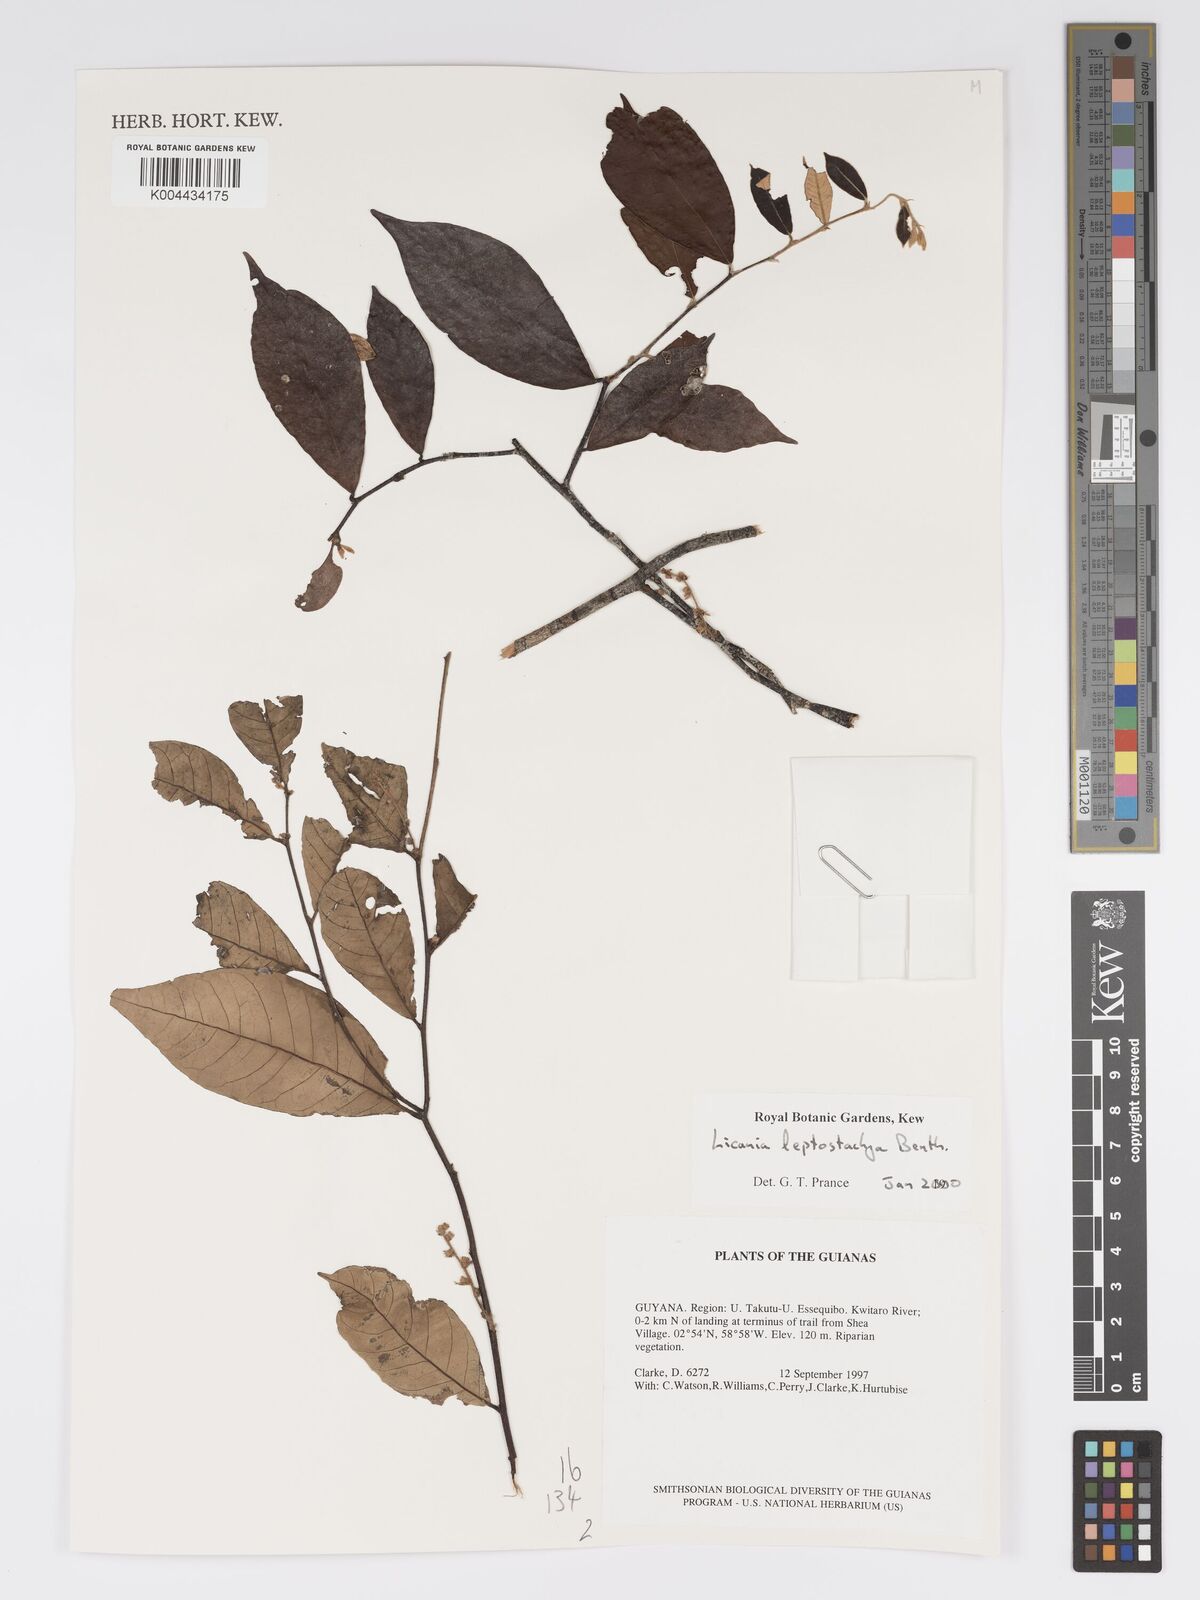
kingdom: Plantae
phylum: Tracheophyta
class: Magnoliopsida
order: Malpighiales
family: Chrysobalanaceae
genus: Licania
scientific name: Licania leptostachya
